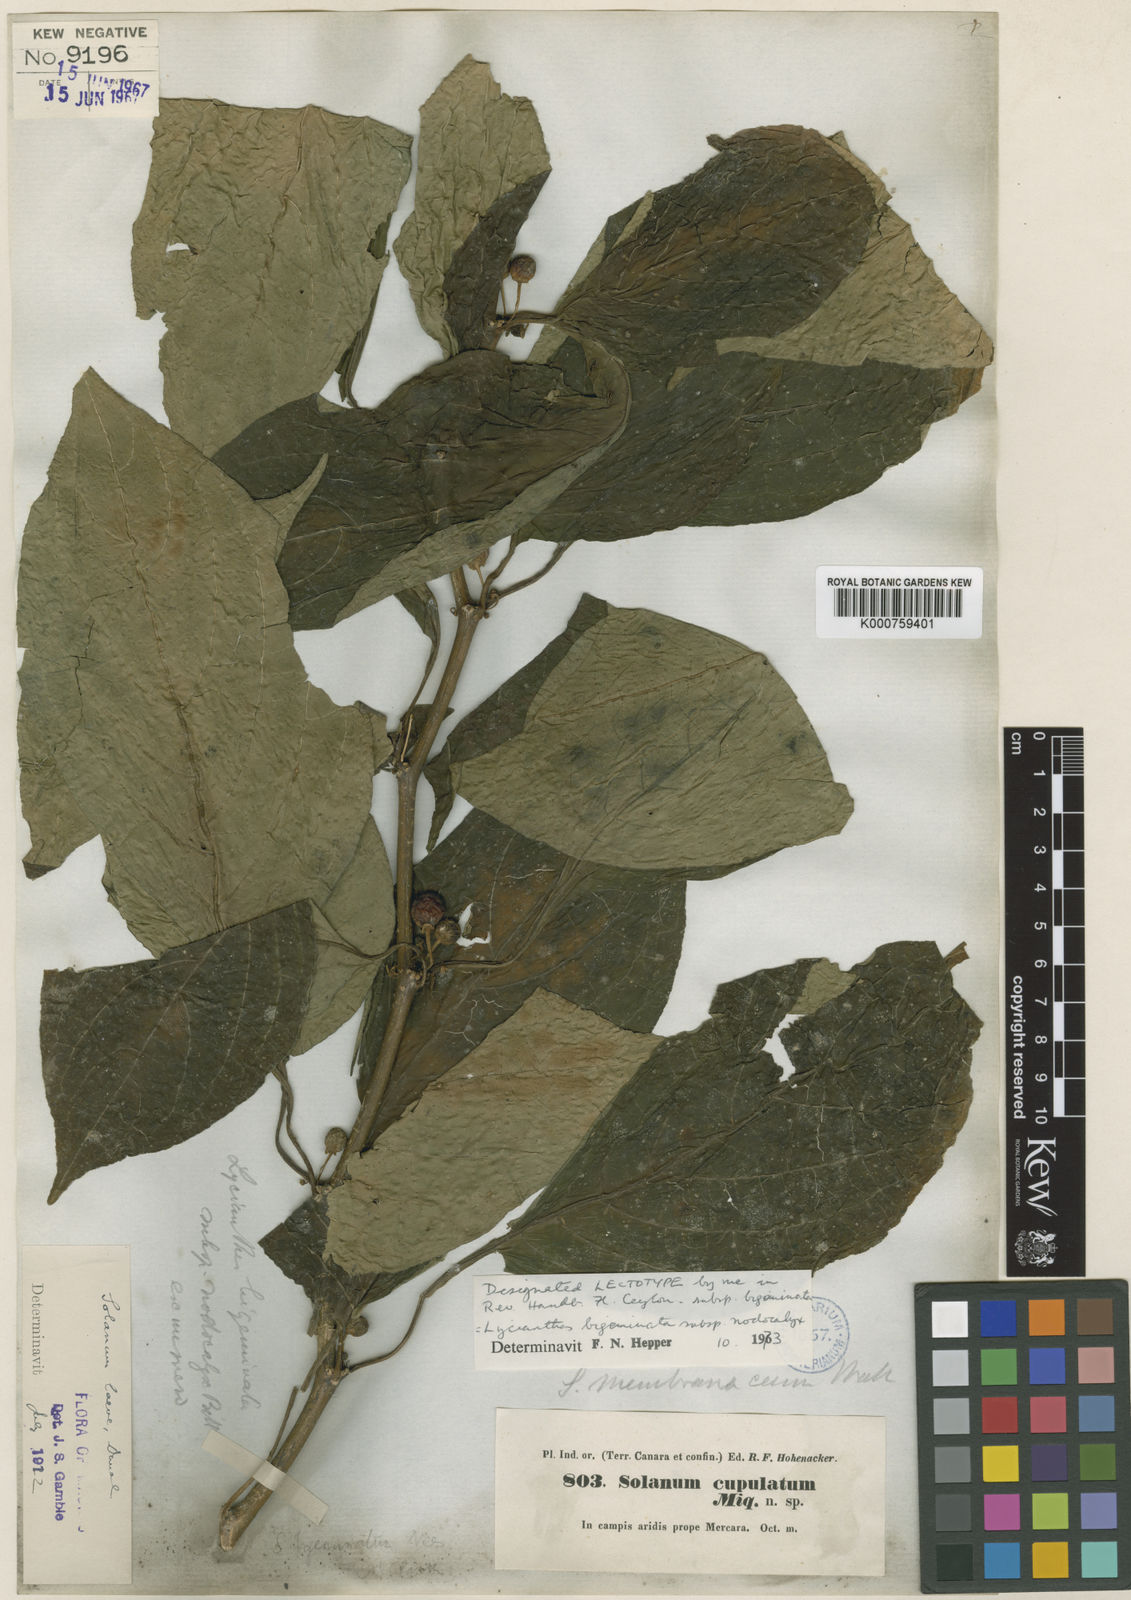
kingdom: Plantae
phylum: Tracheophyta
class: Magnoliopsida
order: Solanales
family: Solanaceae
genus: Lycianthes
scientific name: Lycianthes bigeminata
